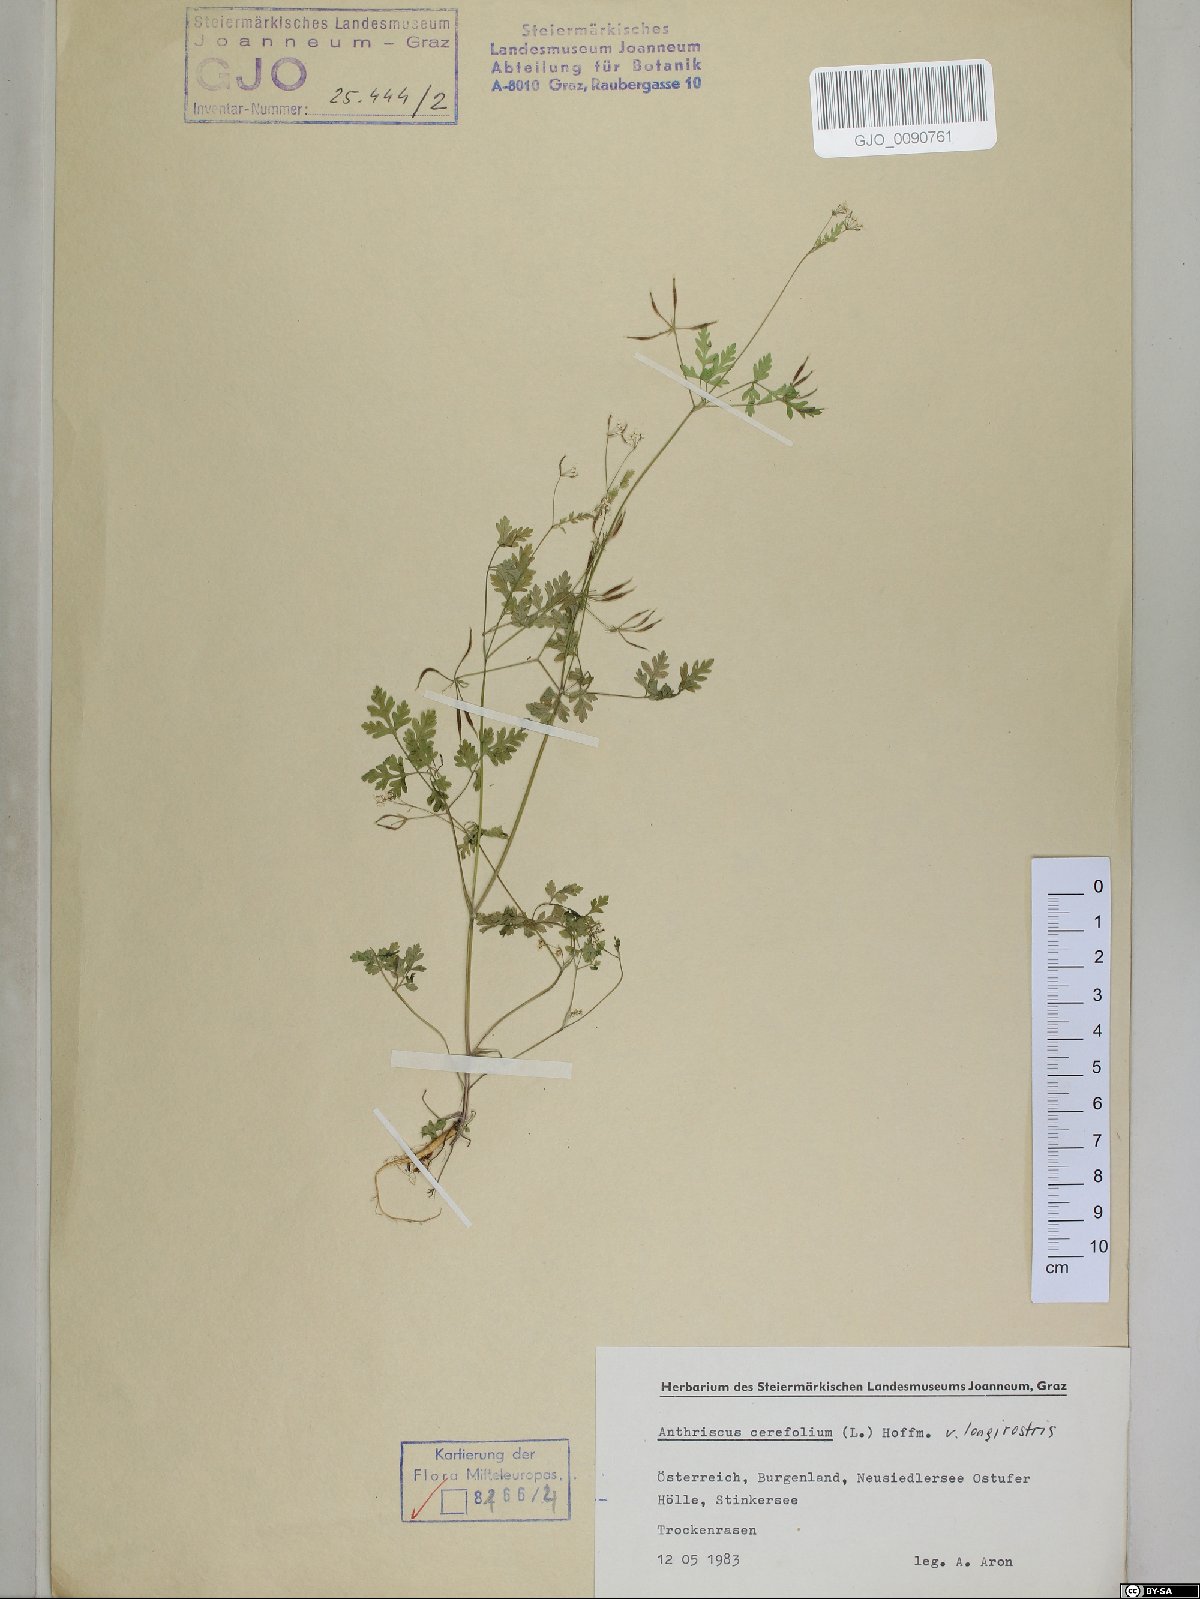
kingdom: Plantae
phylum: Tracheophyta
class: Magnoliopsida
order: Apiales
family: Apiaceae
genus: Anthriscus
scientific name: Anthriscus cerefolium
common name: Garden chervil
